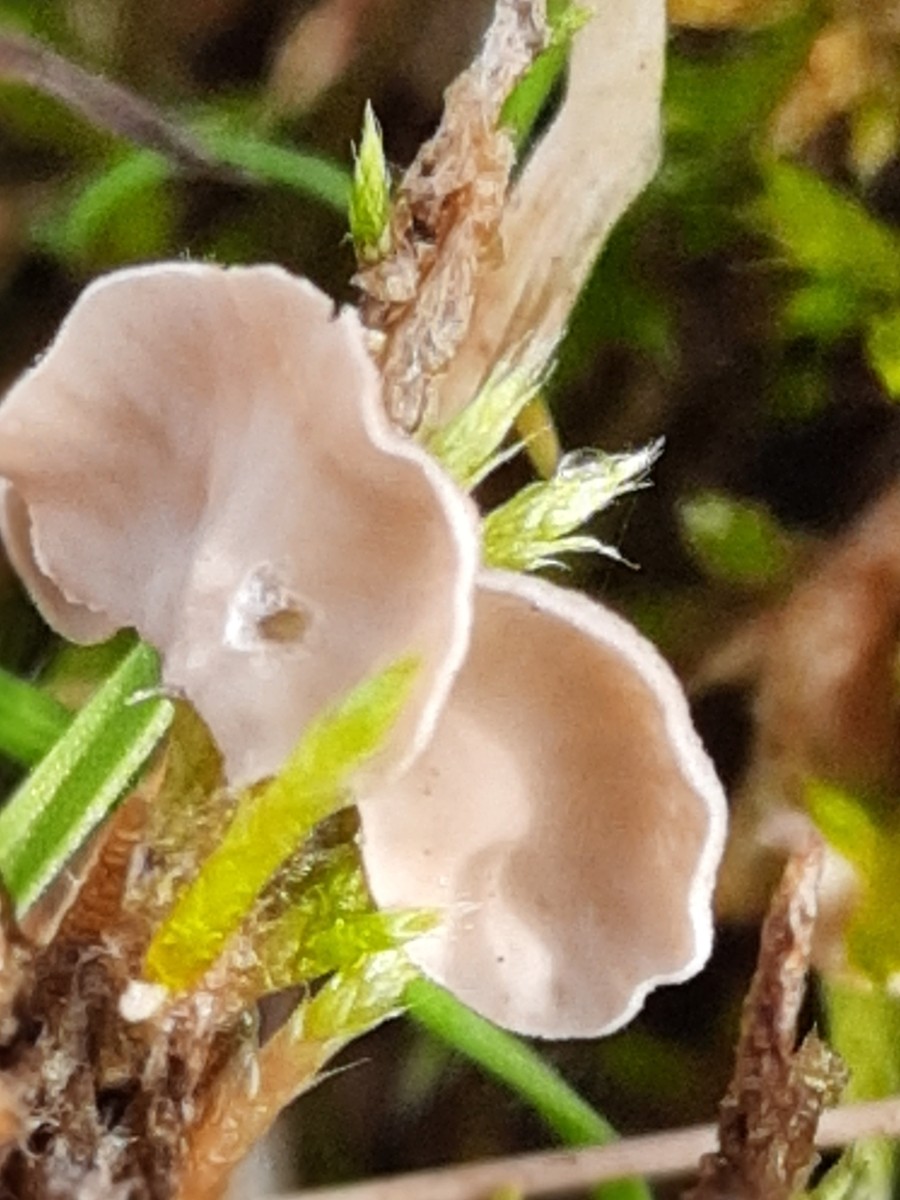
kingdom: Fungi
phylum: Basidiomycota
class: Agaricomycetes
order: Agaricales
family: Hygrophoraceae
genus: Arrhenia
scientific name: Arrhenia retiruga
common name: lille fontænehat
